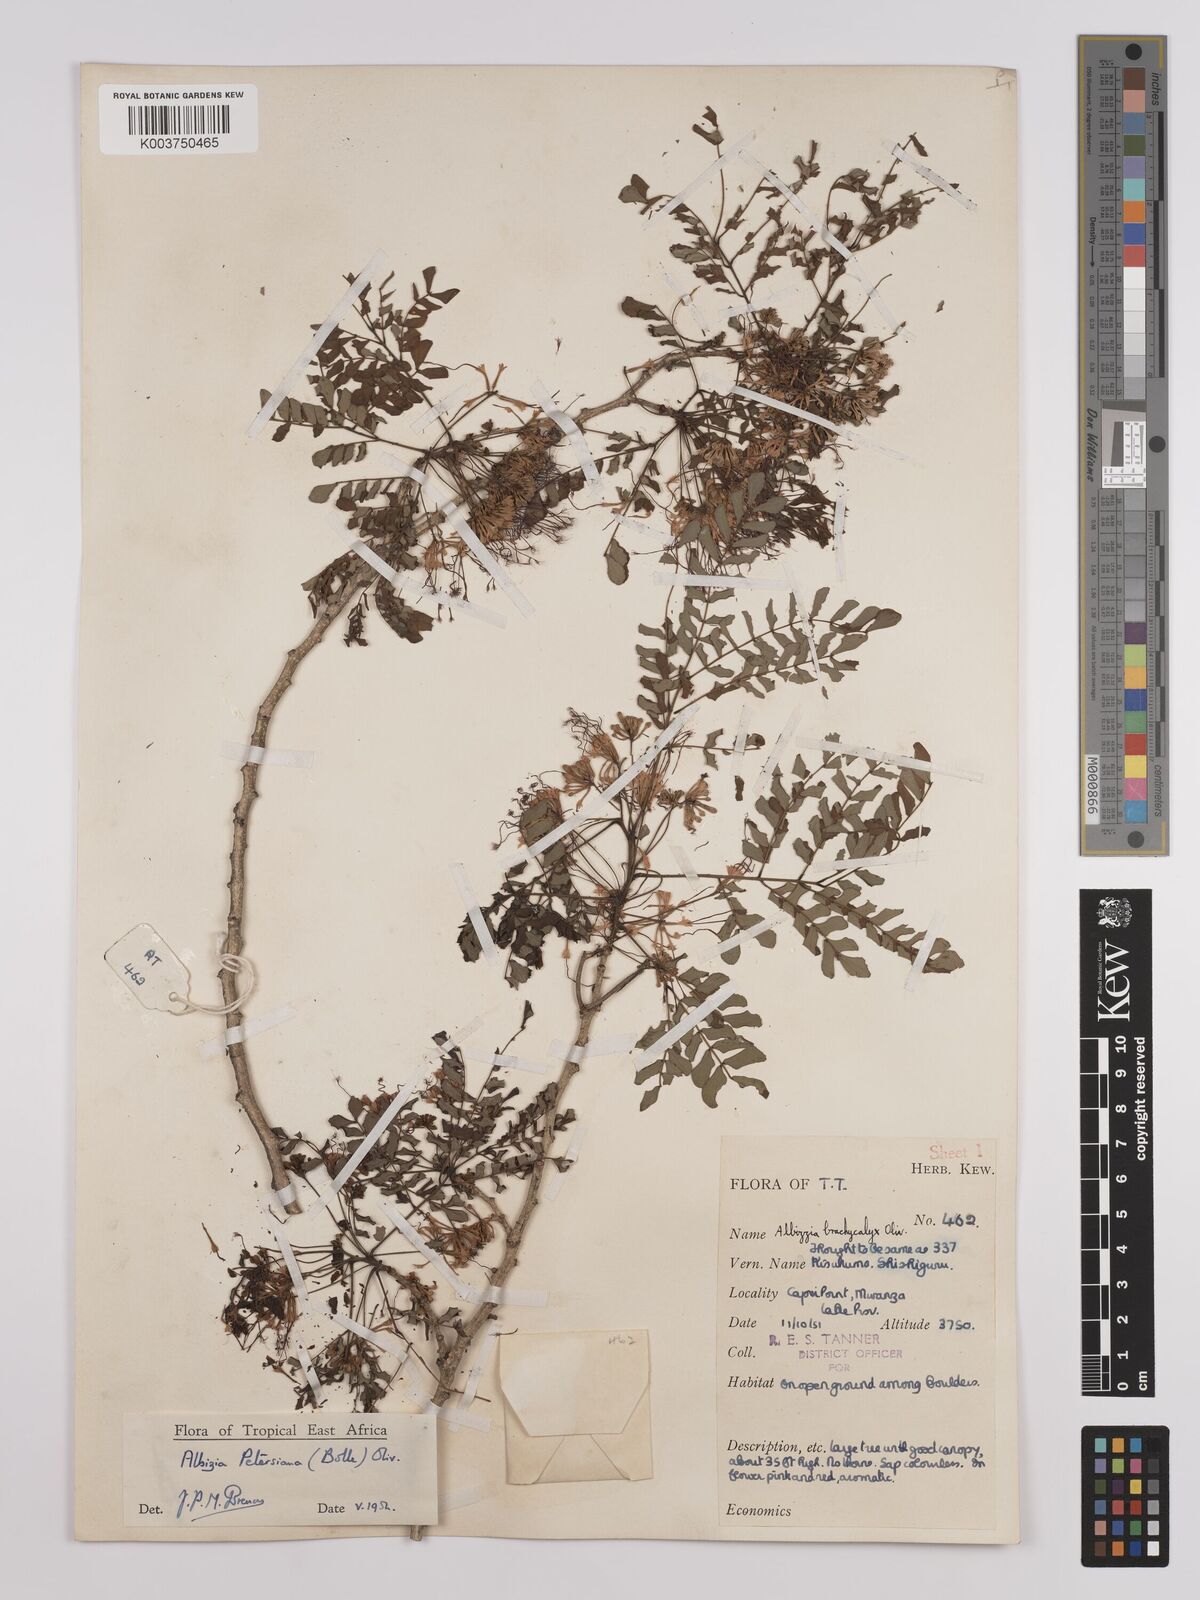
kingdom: Plantae
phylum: Tracheophyta
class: Magnoliopsida
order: Fabales
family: Fabaceae
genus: Albizia
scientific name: Albizia petersiana
